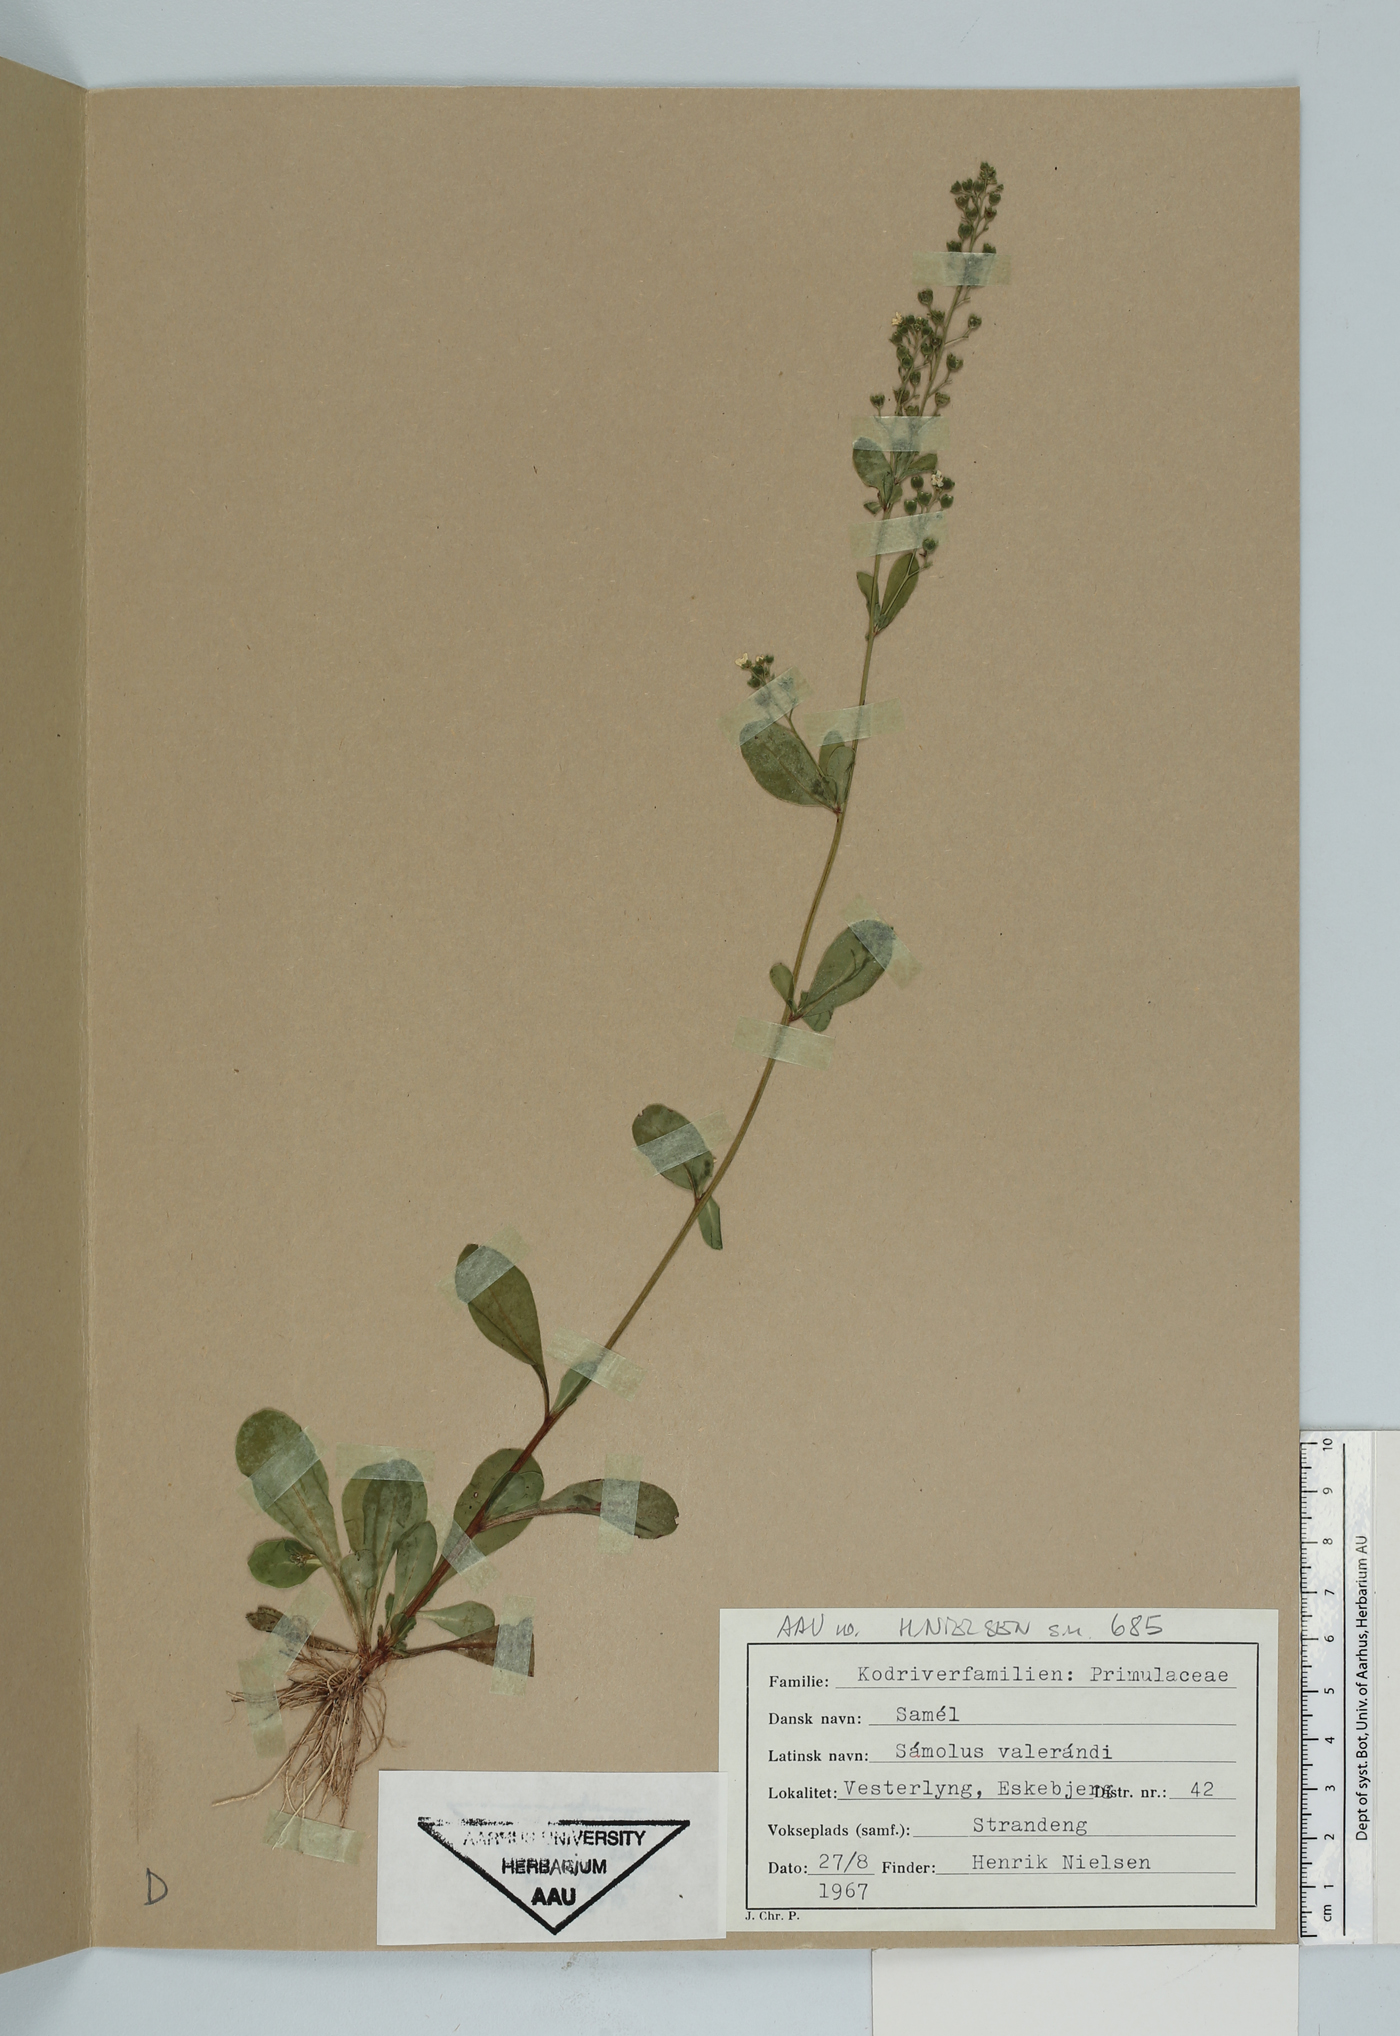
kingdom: Plantae
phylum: Tracheophyta
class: Magnoliopsida
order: Ericales
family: Primulaceae
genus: Samolus
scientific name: Samolus valerandi
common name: Brookweed
